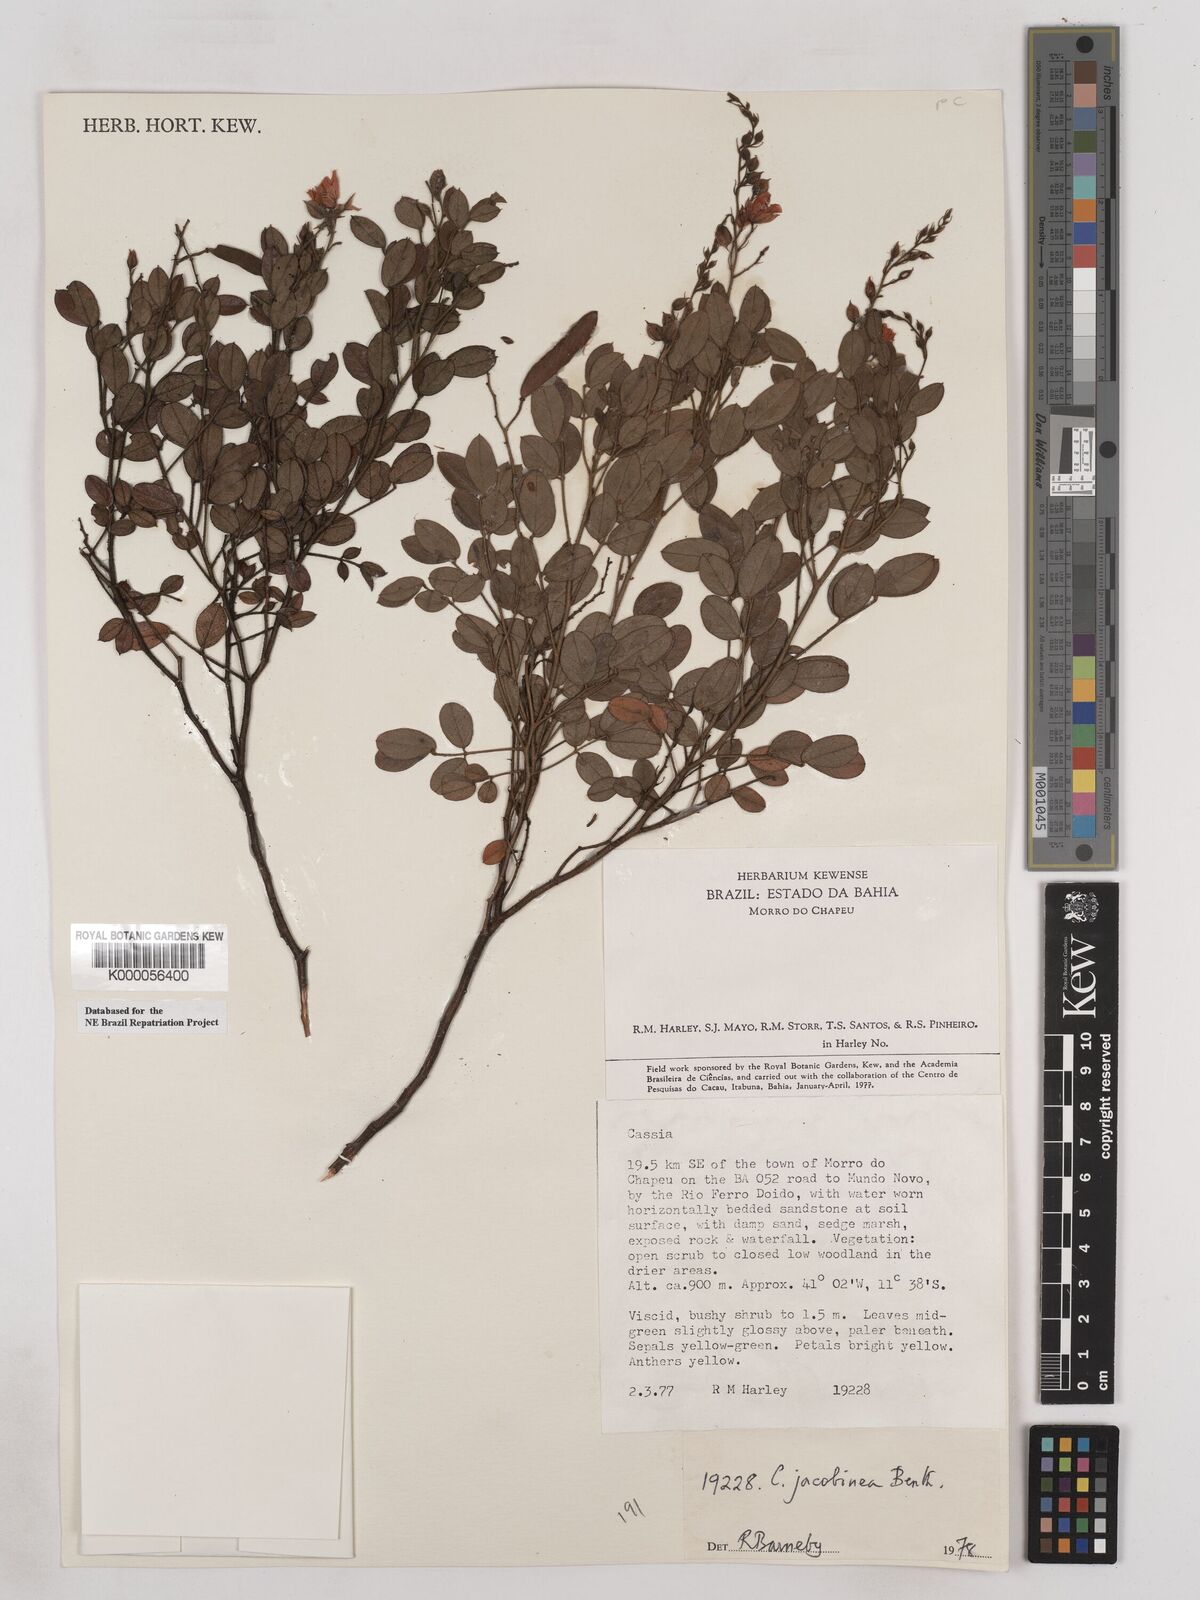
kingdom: Plantae
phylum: Tracheophyta
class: Magnoliopsida
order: Fabales
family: Fabaceae
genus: Chamaecrista
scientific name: Chamaecrista jacobinea
